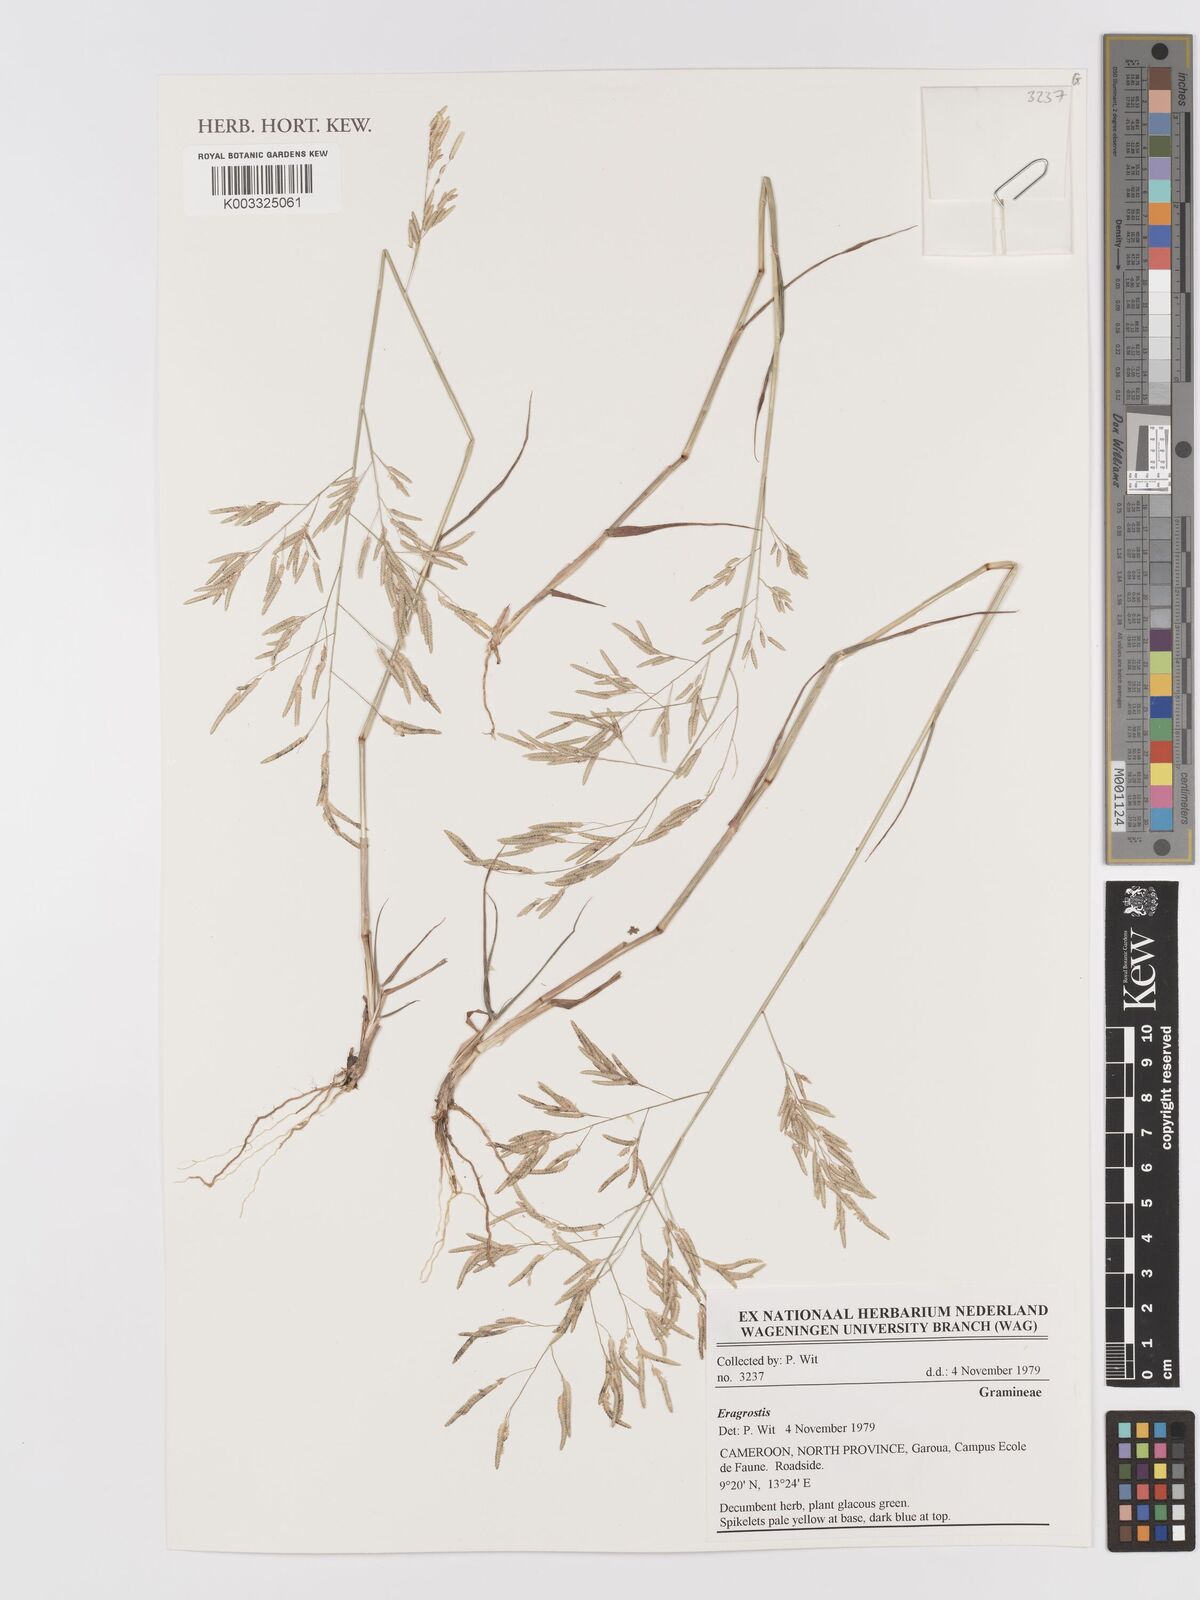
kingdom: Plantae
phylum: Tracheophyta
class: Liliopsida
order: Poales
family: Poaceae
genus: Eragrostis
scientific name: Eragrostis
